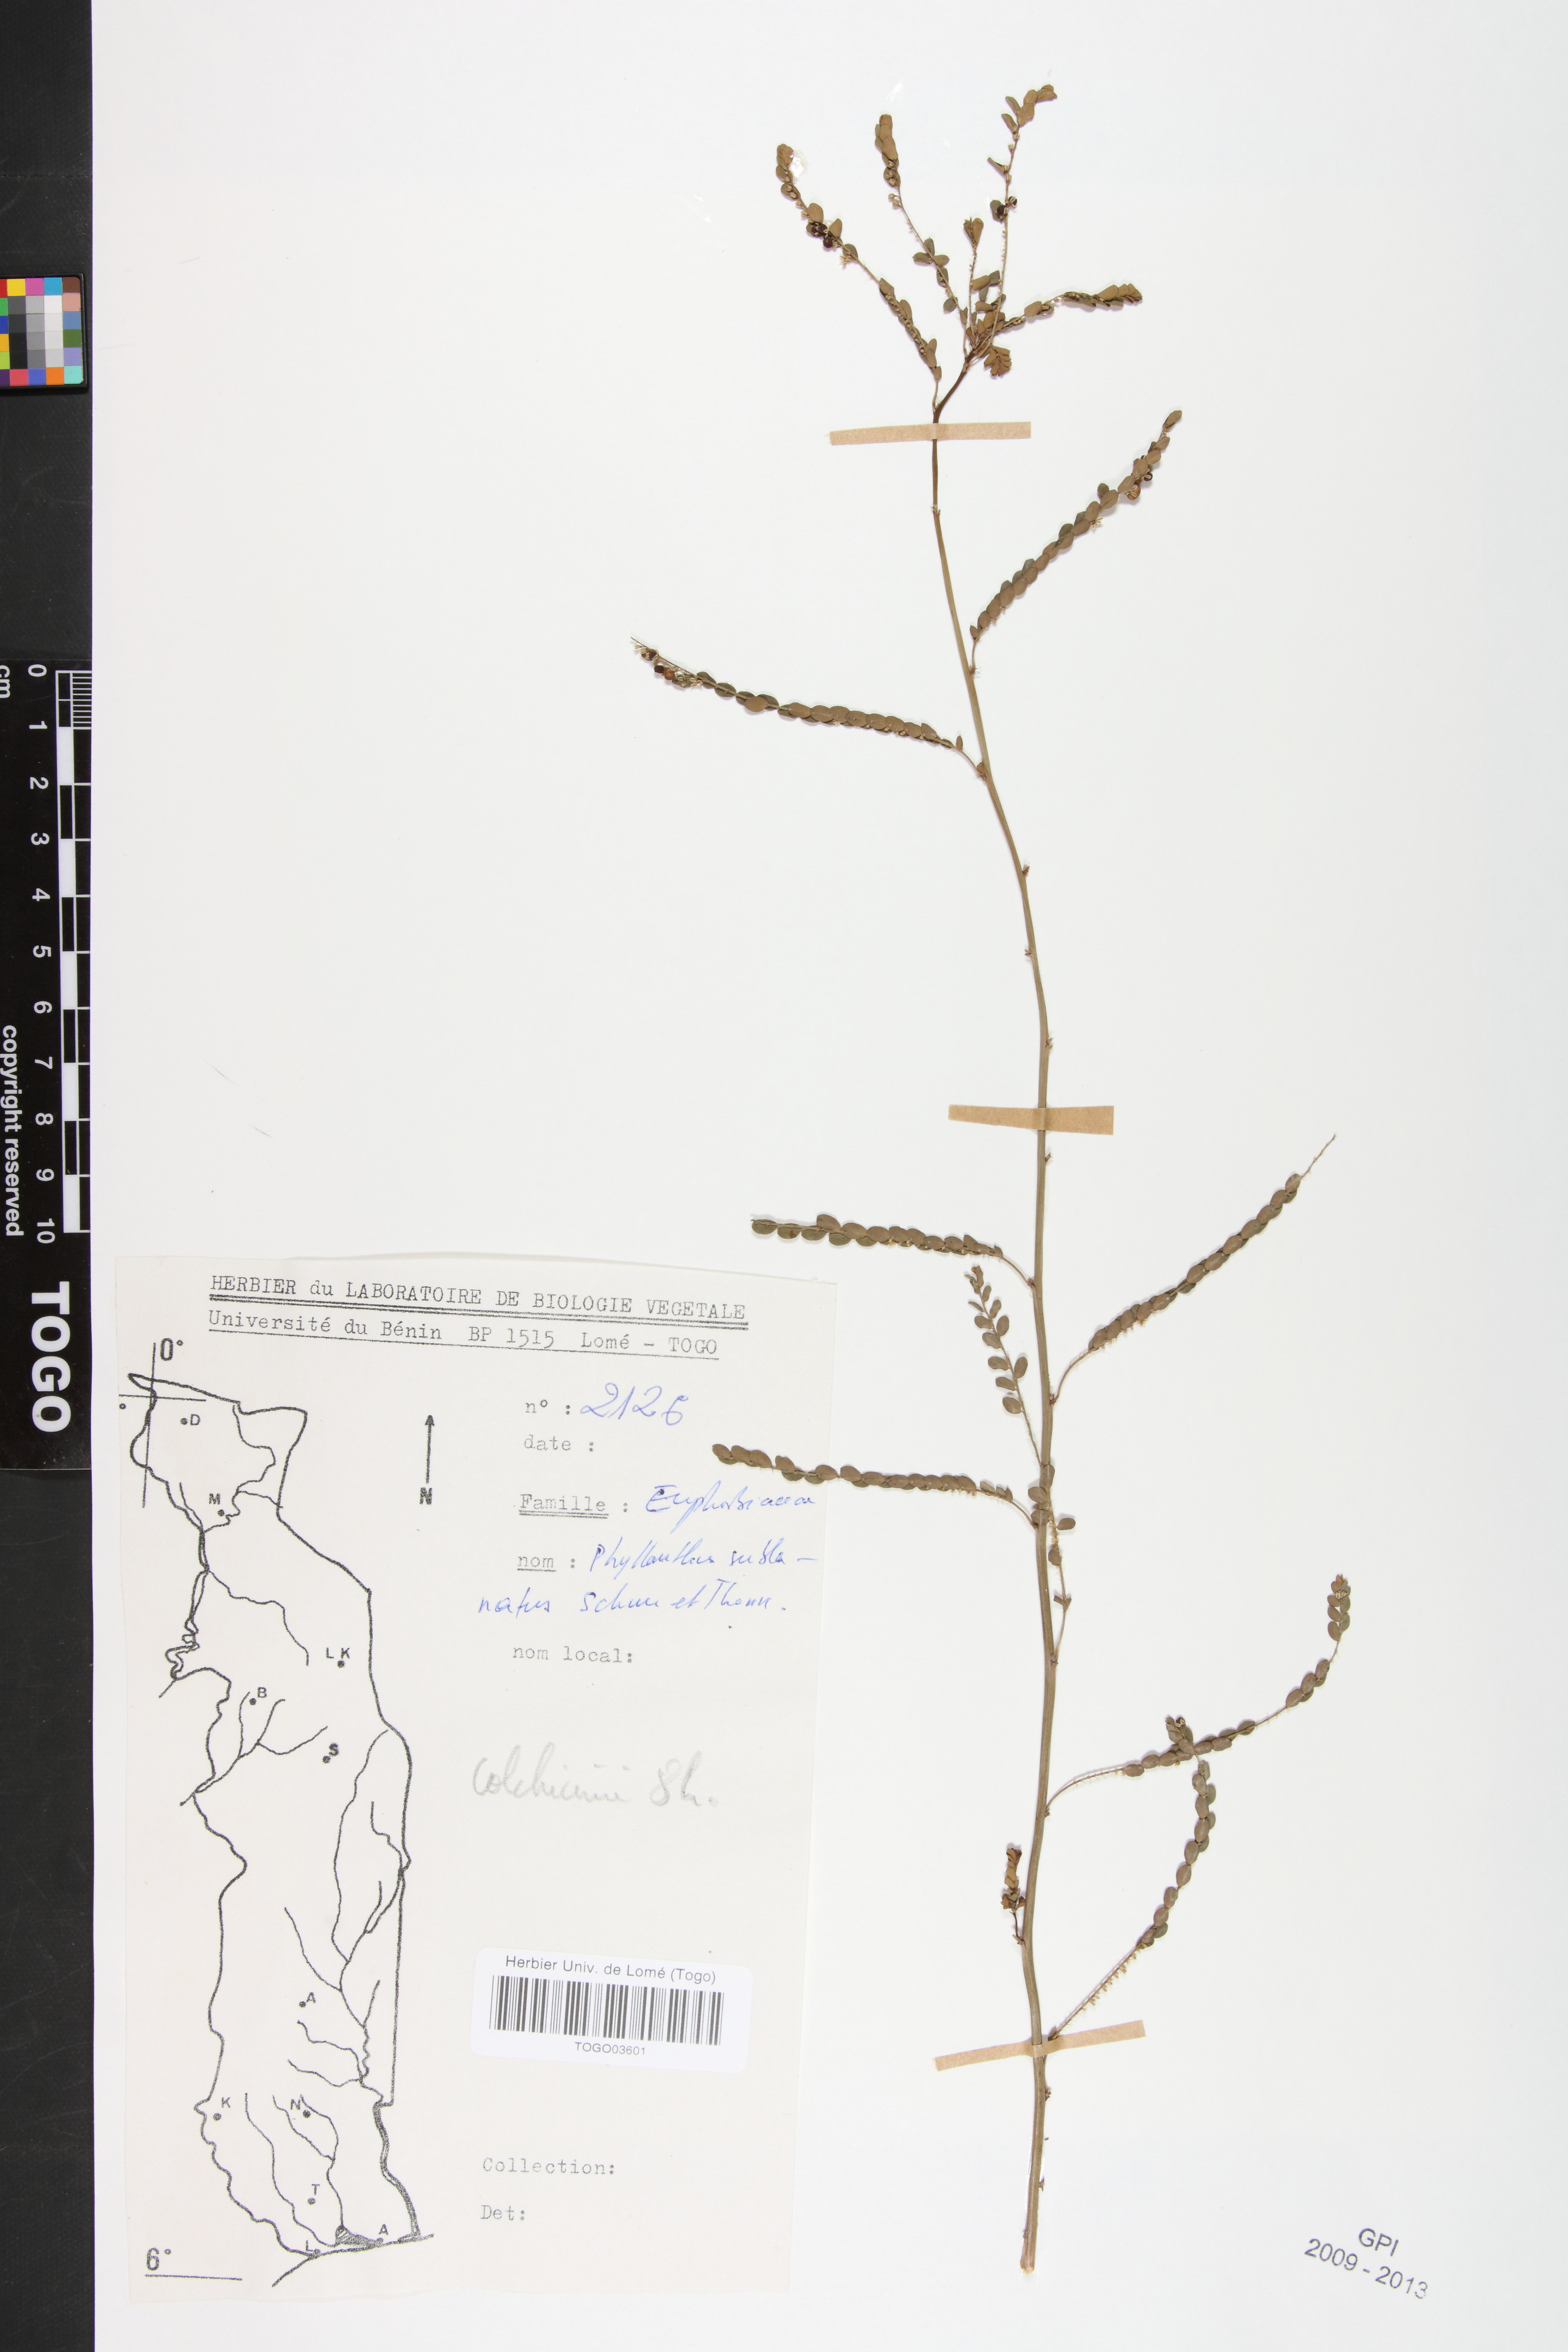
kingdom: Plantae
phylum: Tracheophyta
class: Magnoliopsida
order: Malpighiales
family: Phyllanthaceae
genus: Phyllanthus
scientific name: Phyllanthus sublanatus
